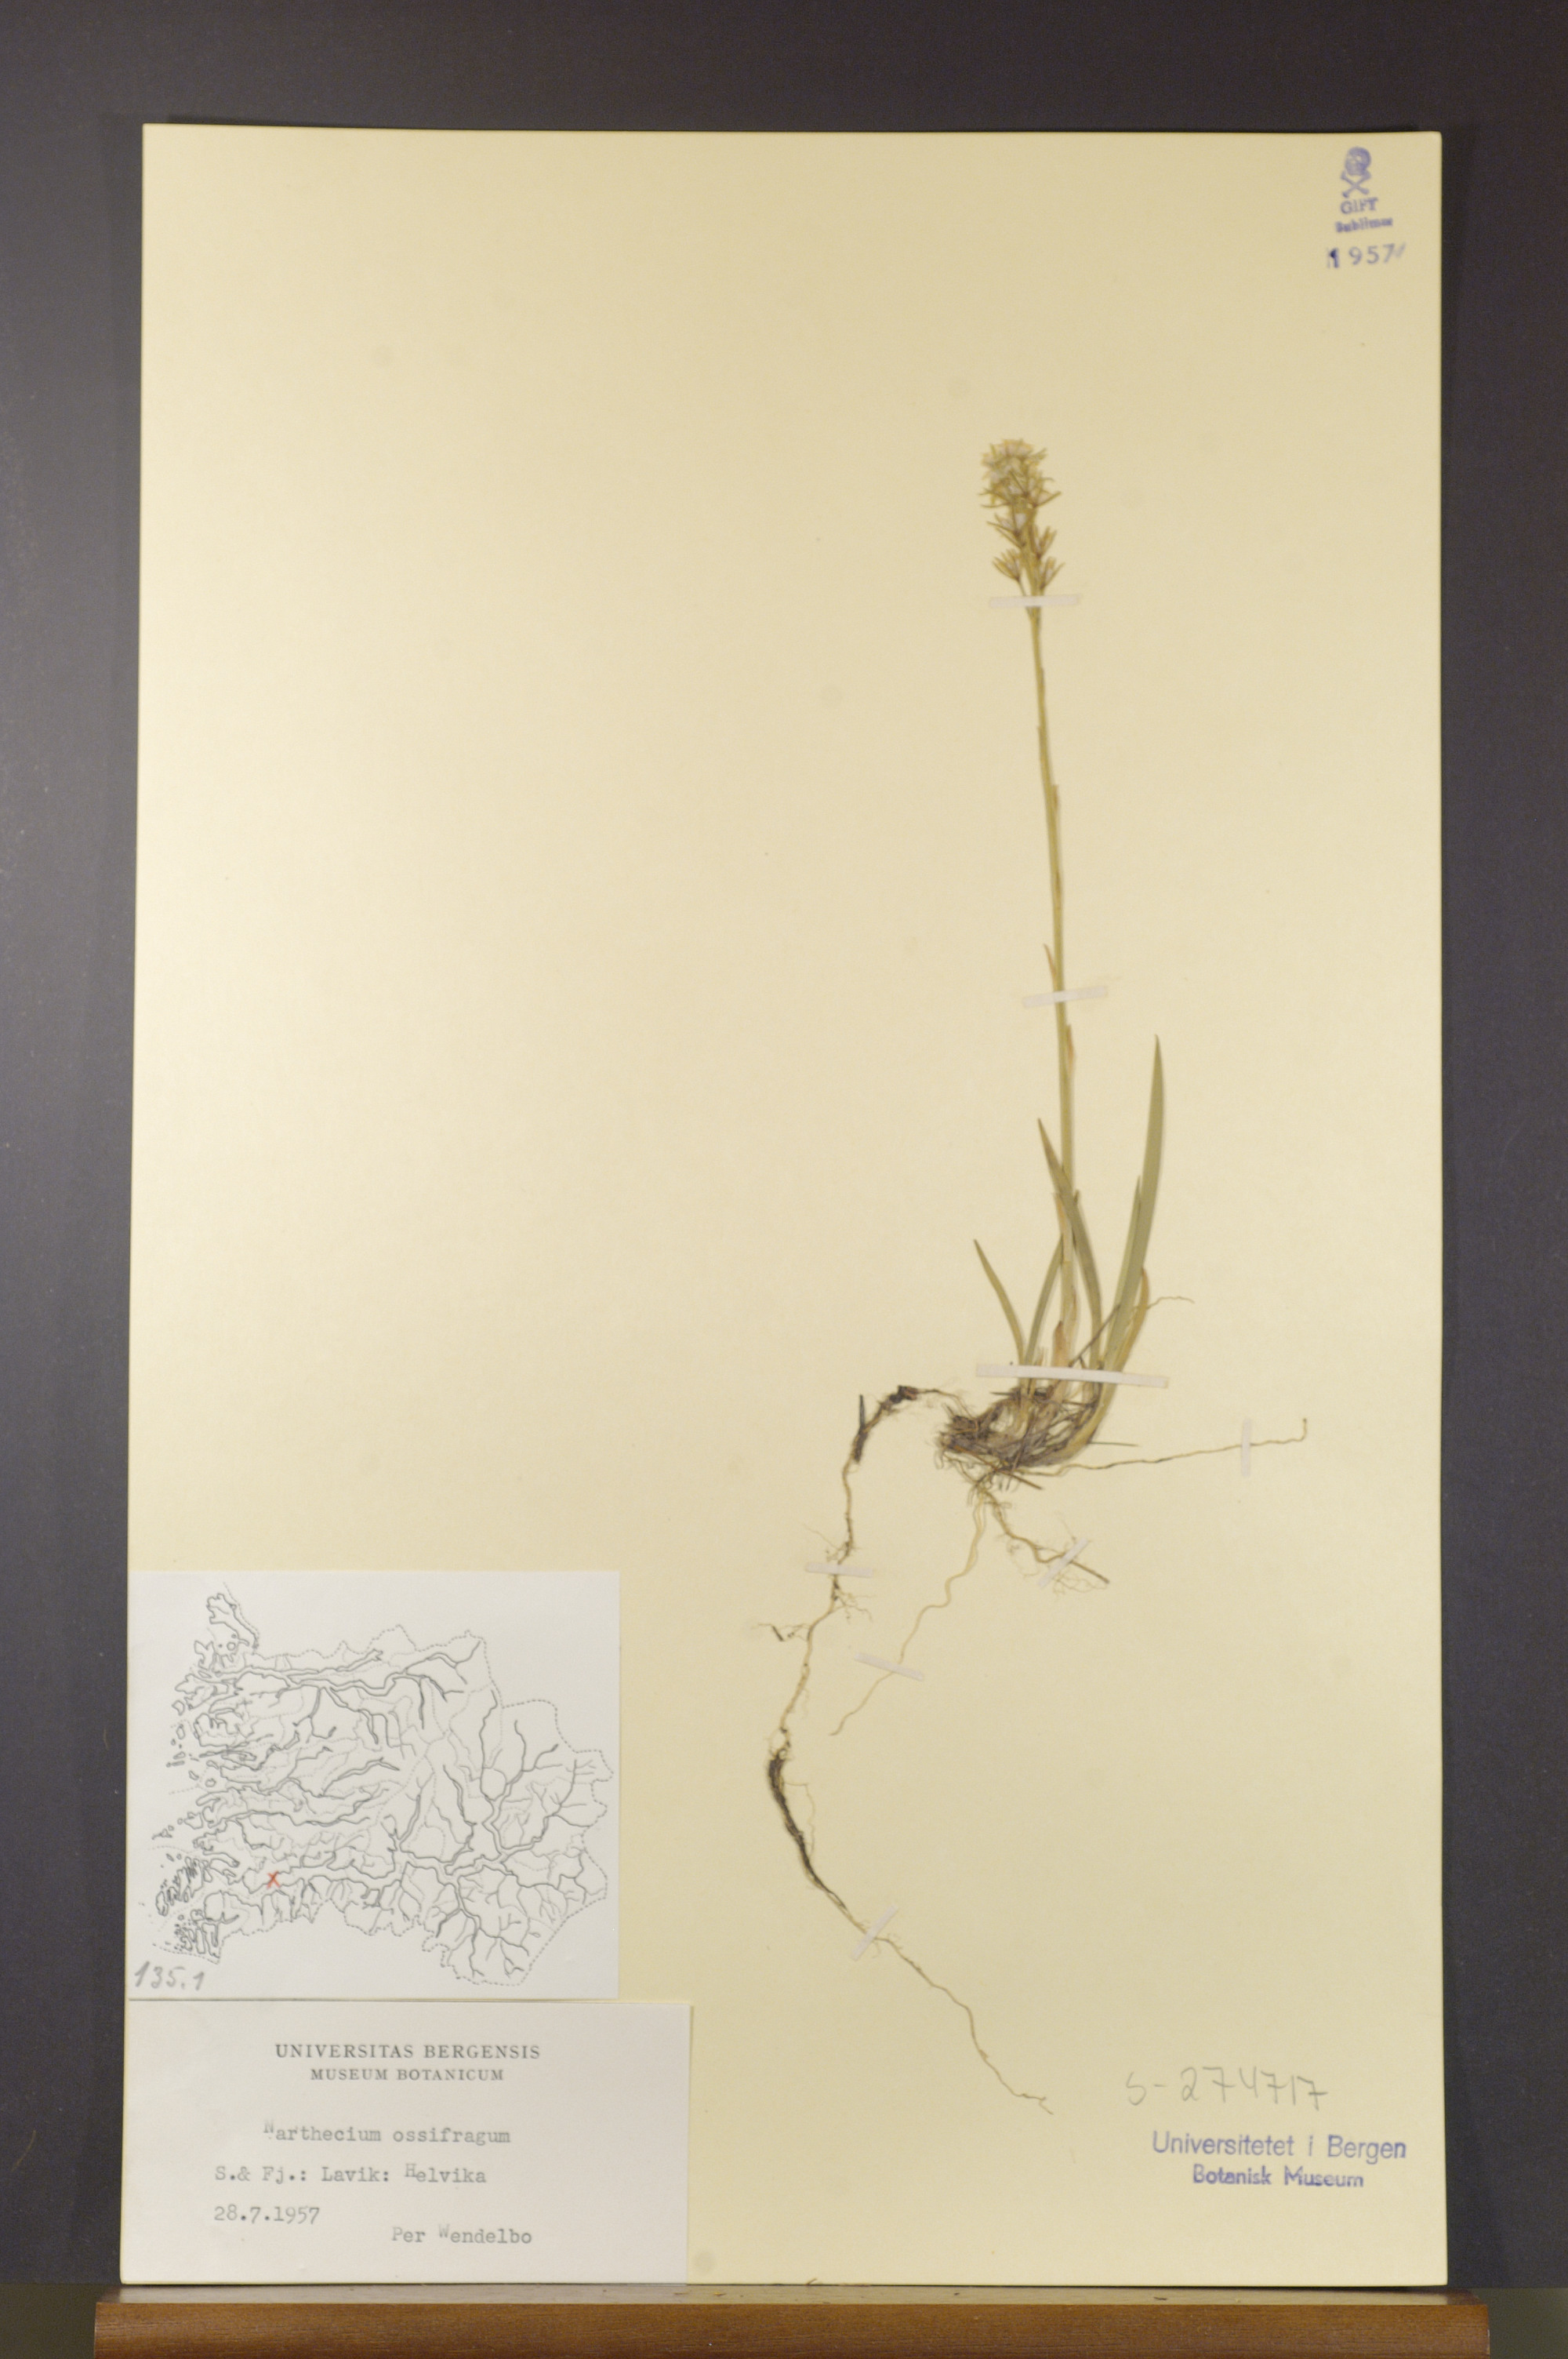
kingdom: Plantae
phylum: Tracheophyta
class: Liliopsida
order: Dioscoreales
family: Nartheciaceae
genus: Narthecium
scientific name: Narthecium ossifragum
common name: Bog asphodel
